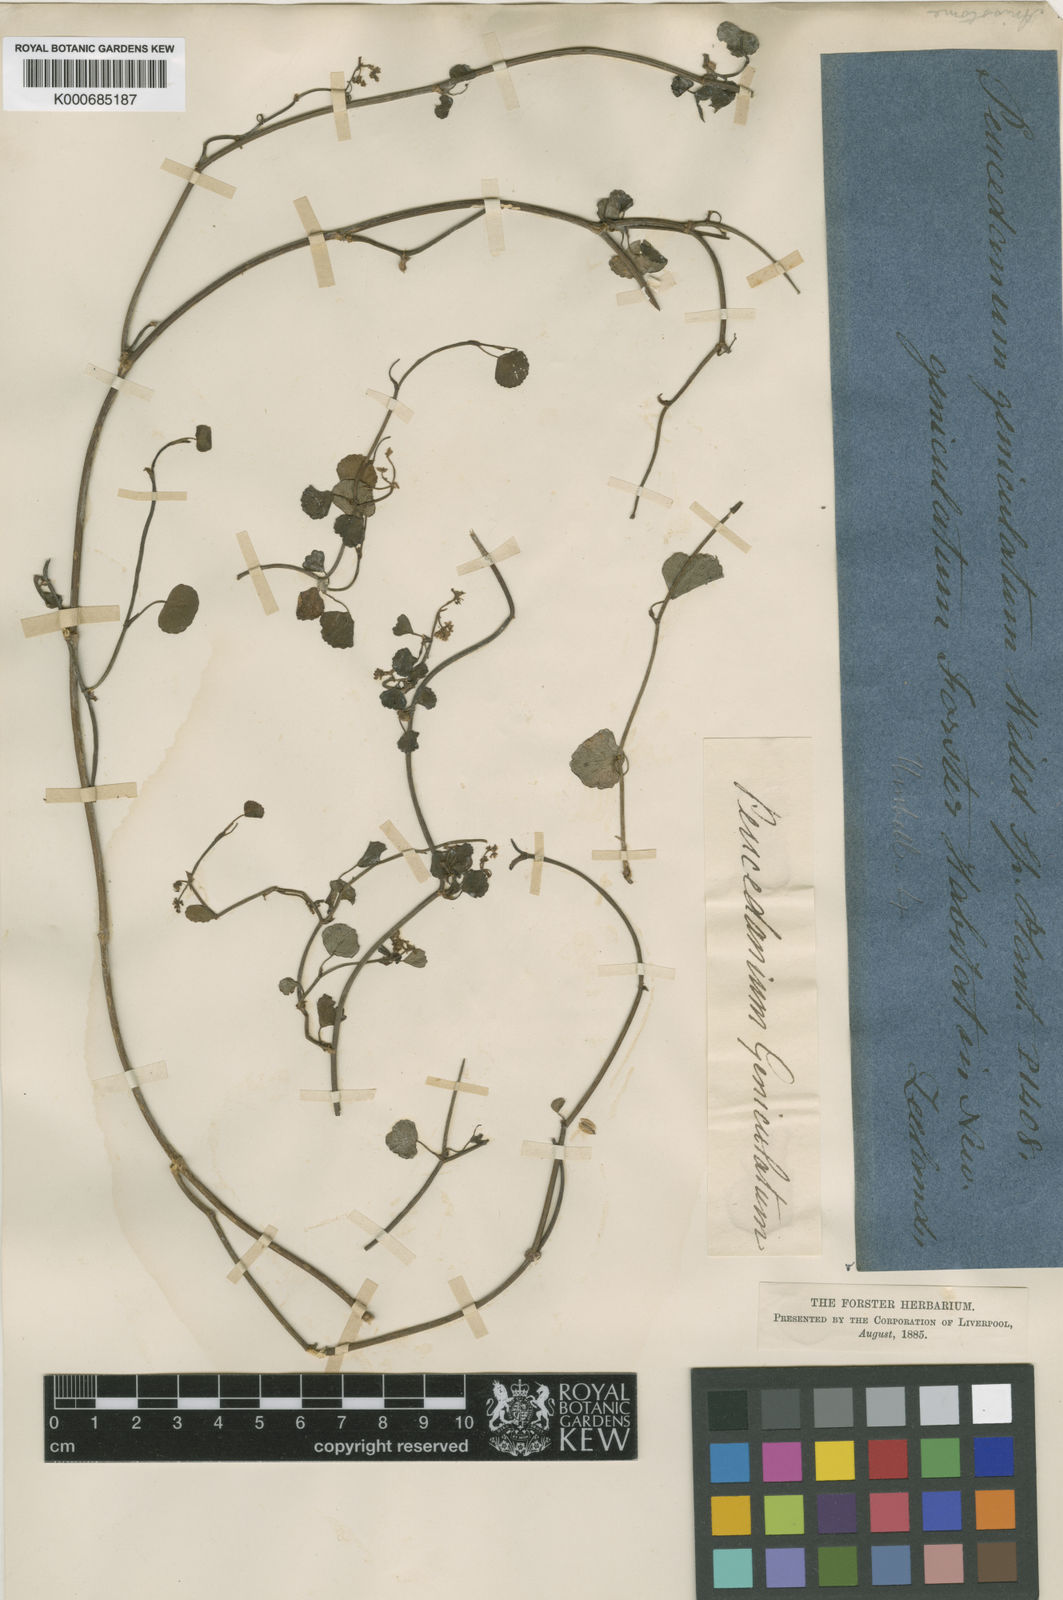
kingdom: Plantae
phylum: Tracheophyta
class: Magnoliopsida
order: Apiales
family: Apiaceae
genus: Scandia
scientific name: Scandia geniculata
